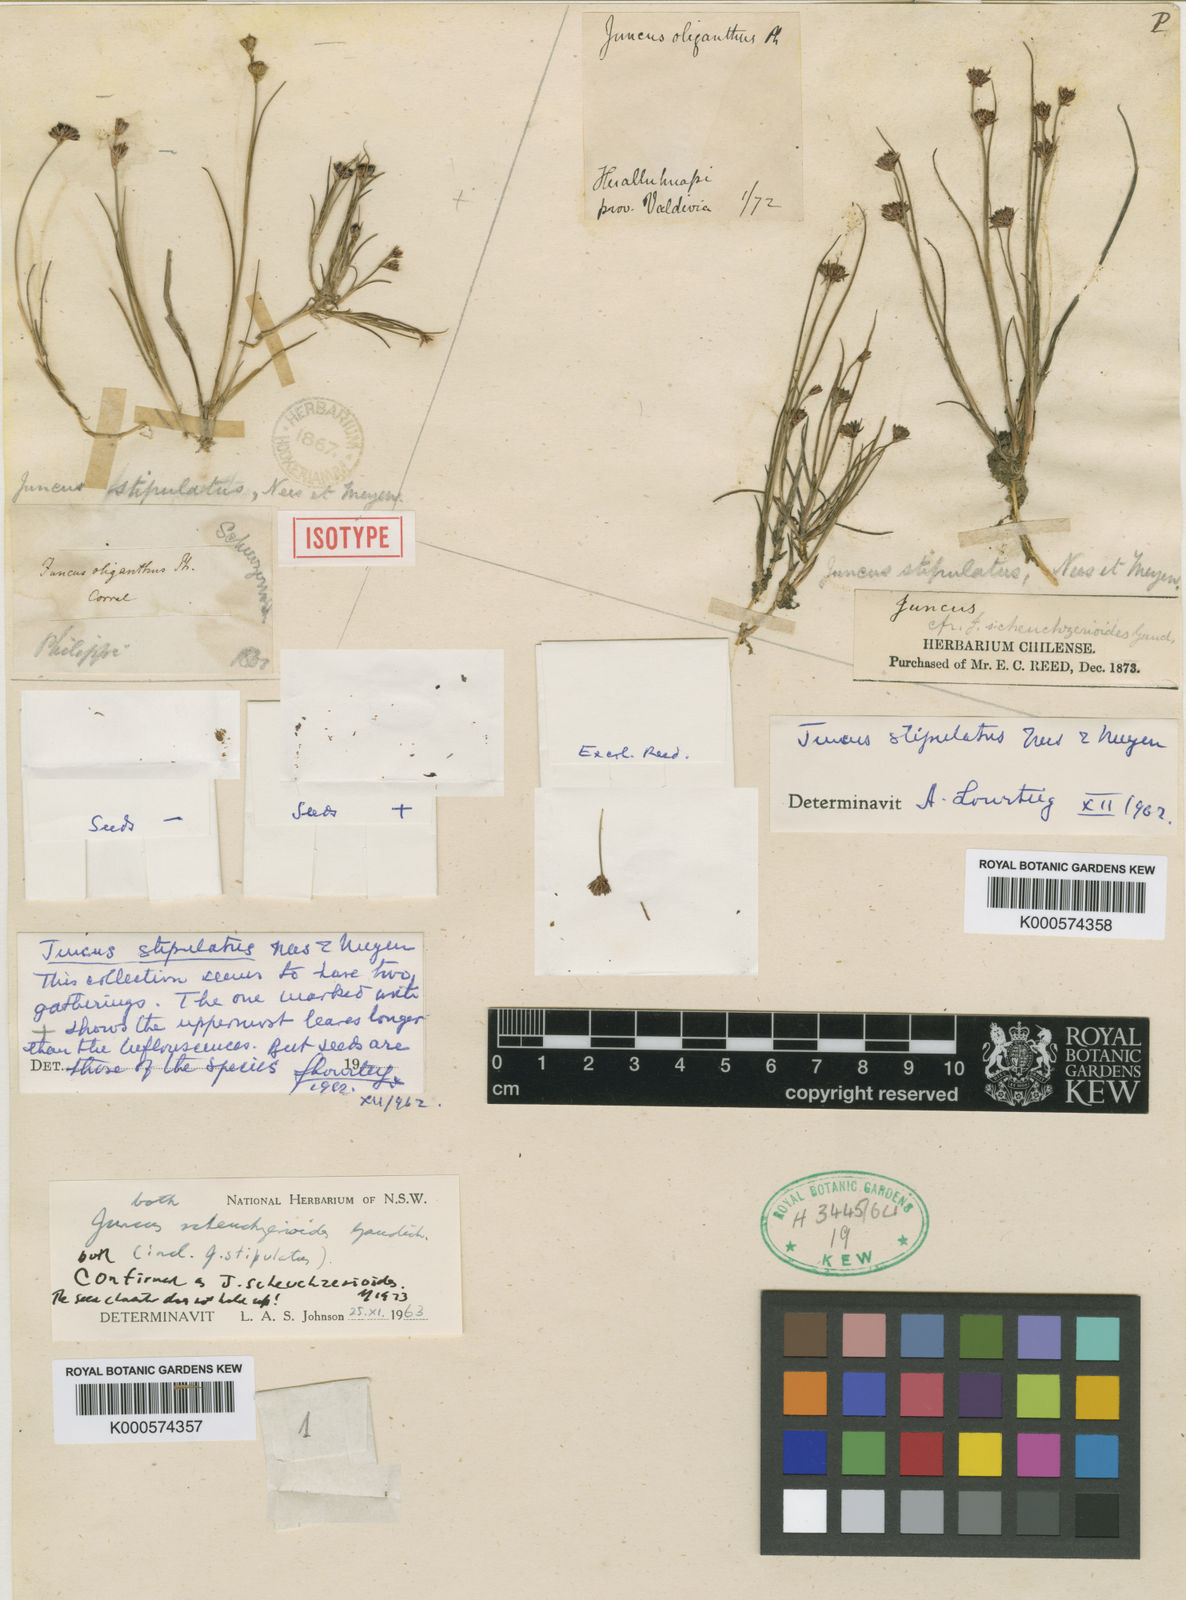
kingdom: Plantae
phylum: Tracheophyta
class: Liliopsida
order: Poales
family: Juncaceae
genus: Juncus
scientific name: Juncus scheuchzerioides
